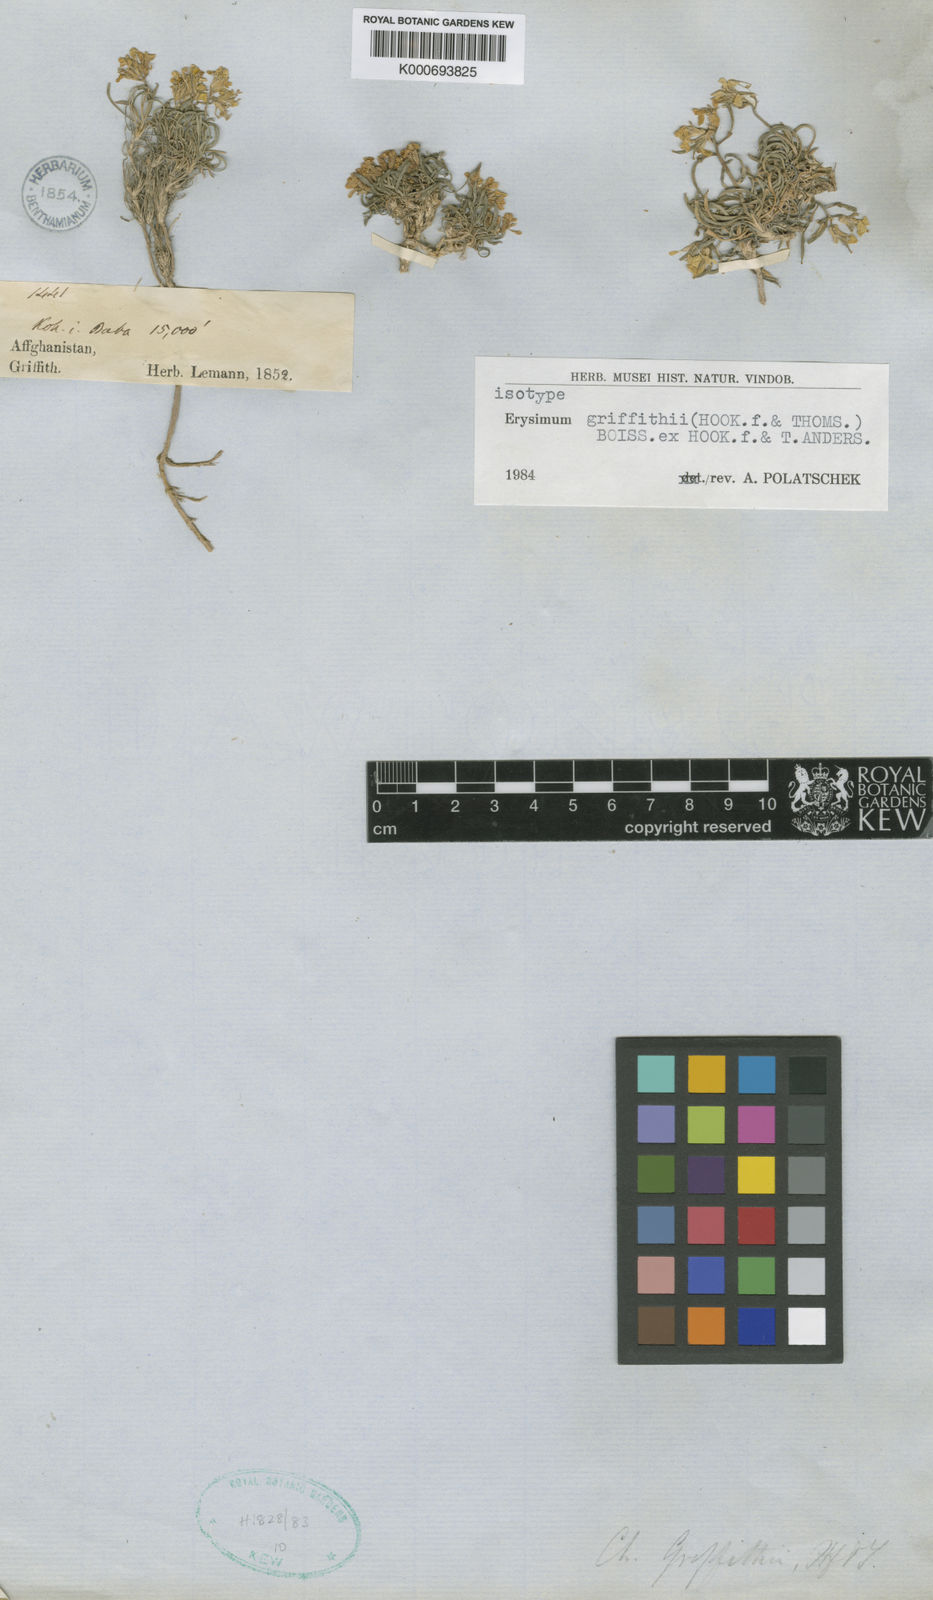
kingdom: Plantae
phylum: Tracheophyta
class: Magnoliopsida
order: Brassicales
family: Brassicaceae
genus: Erysimum
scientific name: Erysimum
